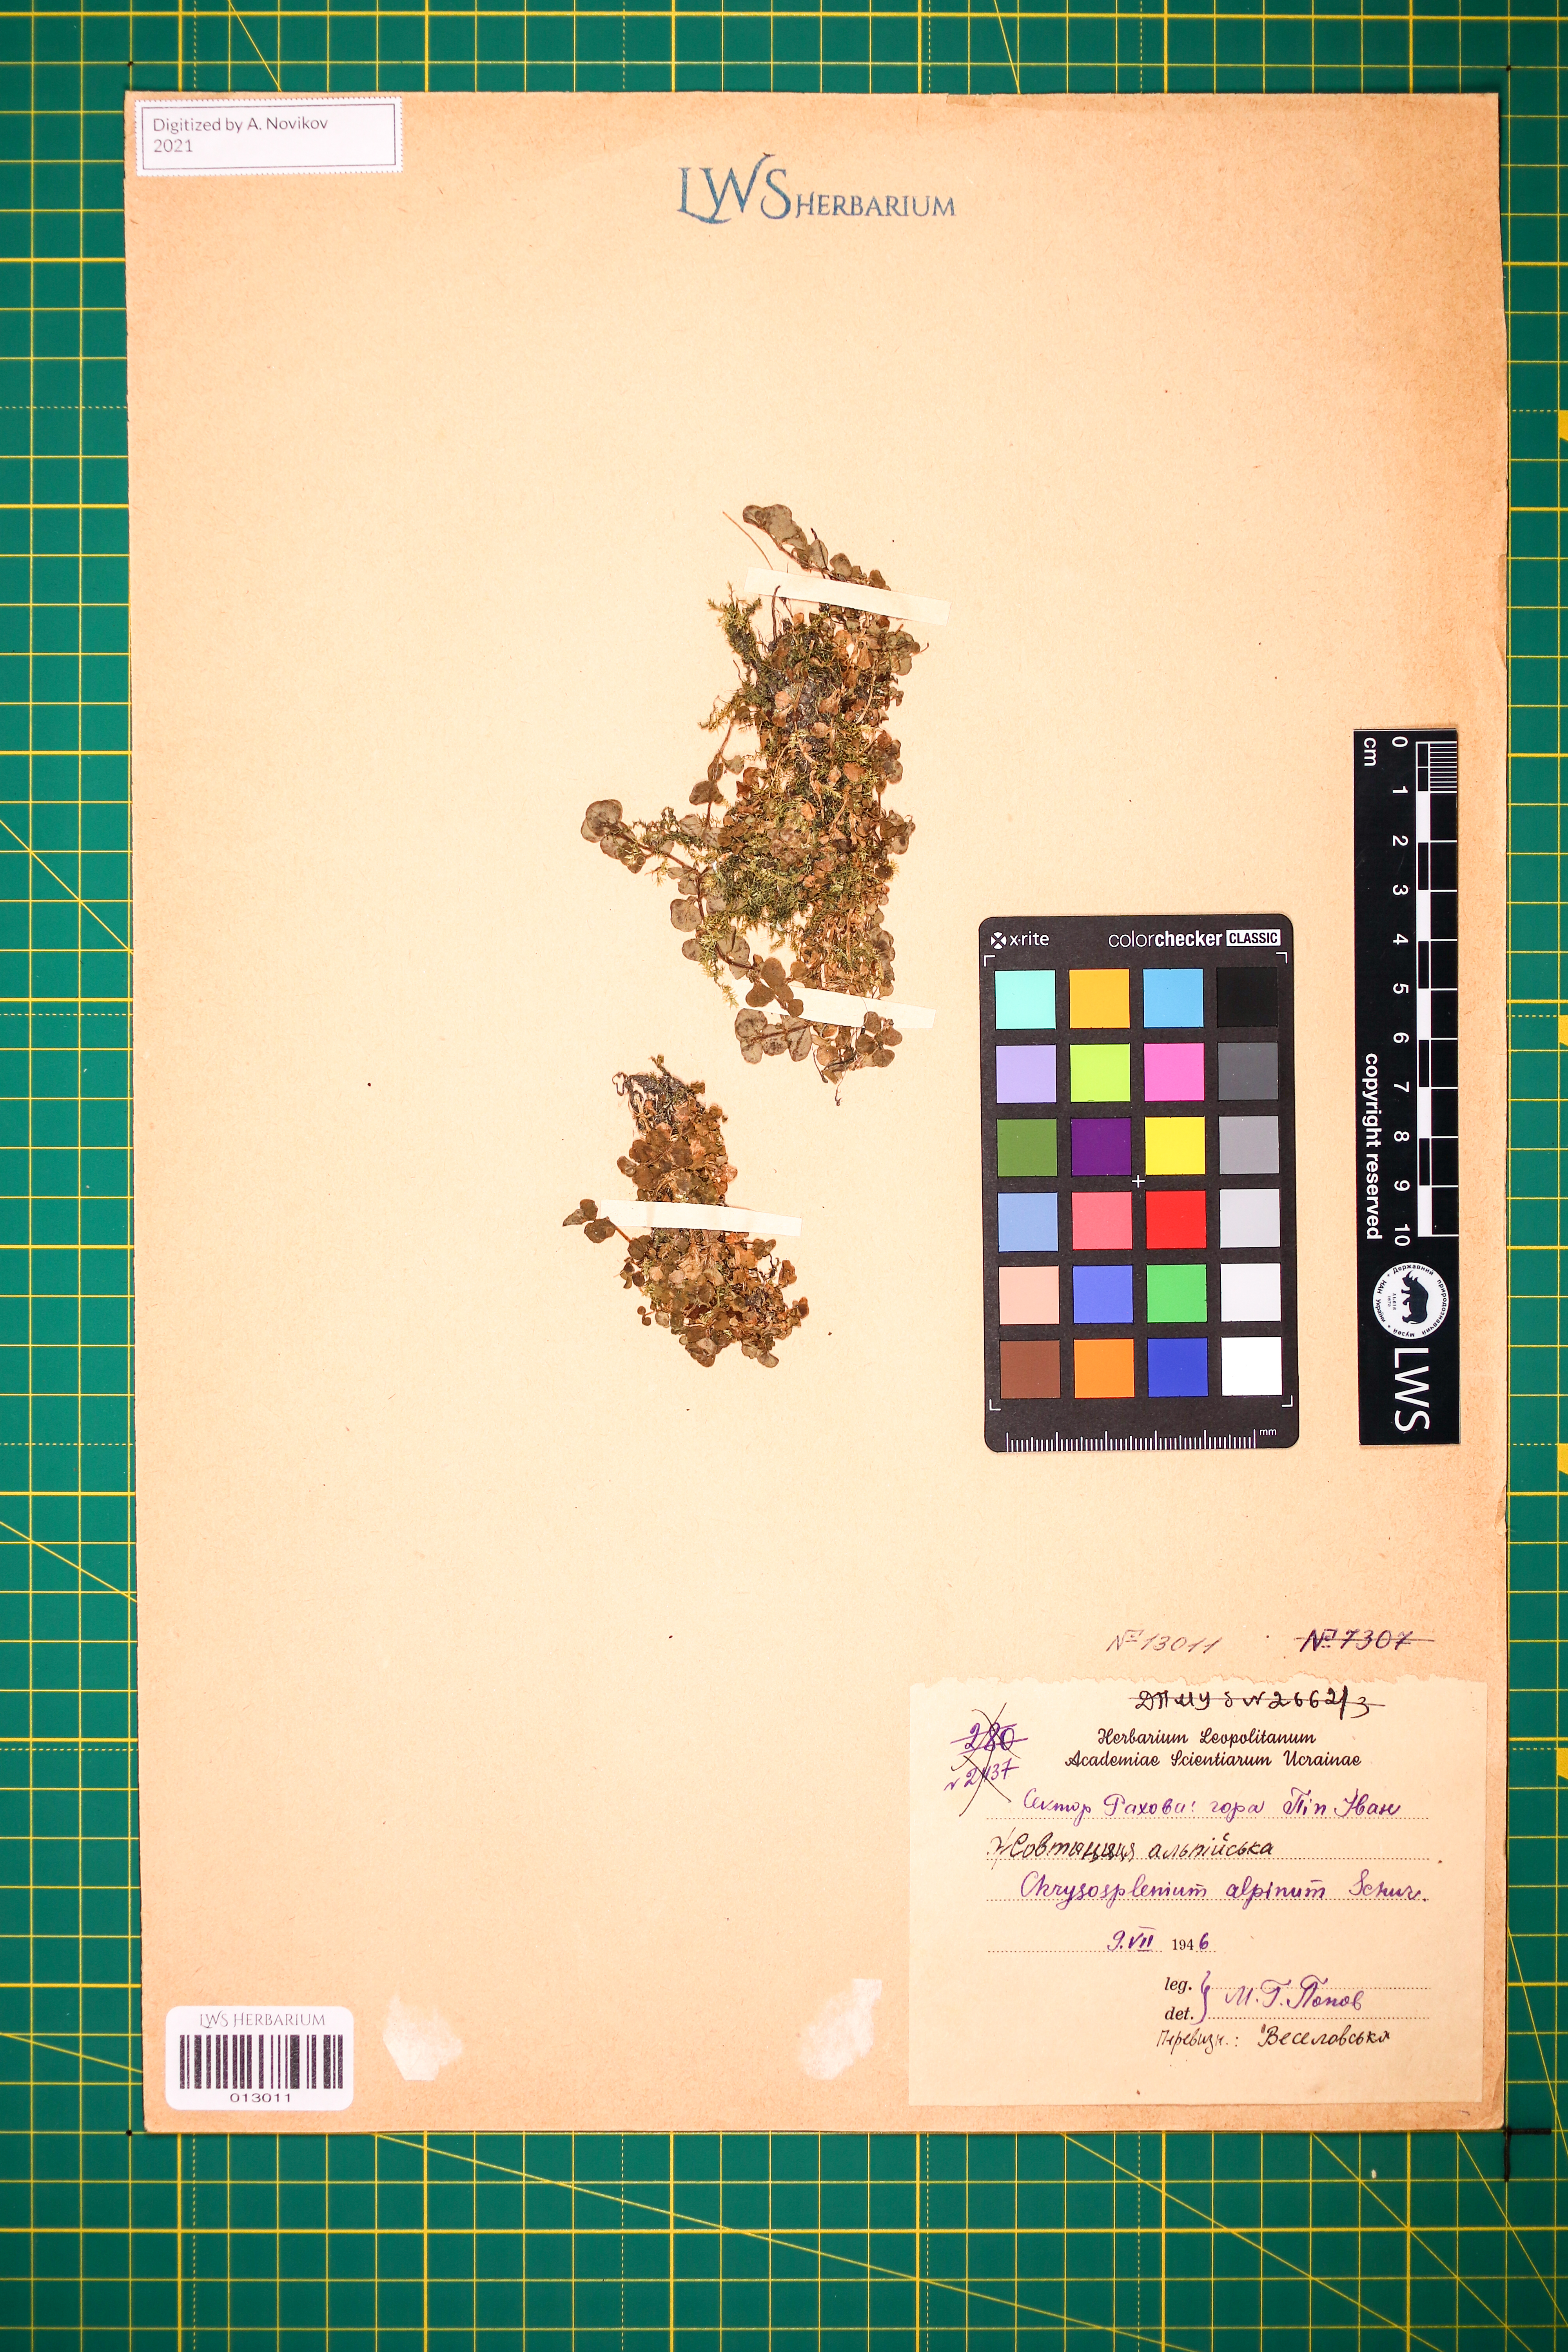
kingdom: Plantae
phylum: Tracheophyta
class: Magnoliopsida
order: Saxifragales
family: Saxifragaceae
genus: Chrysosplenium
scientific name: Chrysosplenium alpinum
